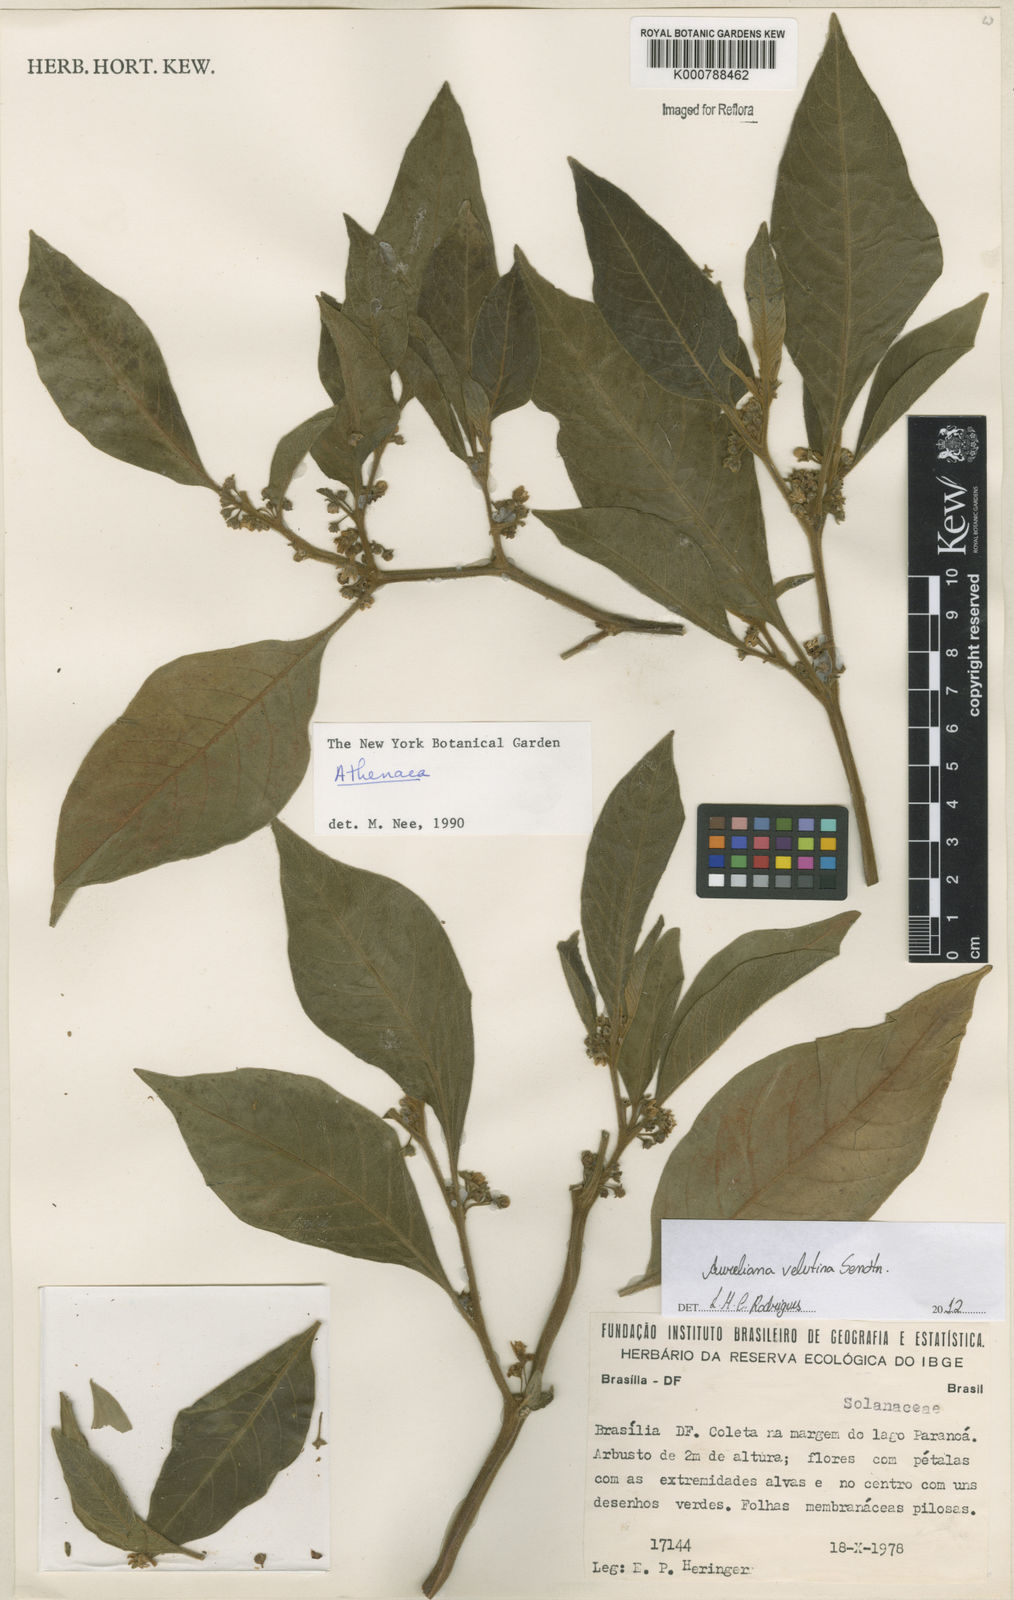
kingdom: Plantae
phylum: Tracheophyta
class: Magnoliopsida
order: Solanales
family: Solanaceae
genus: Athenaea
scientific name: Athenaea velutina
